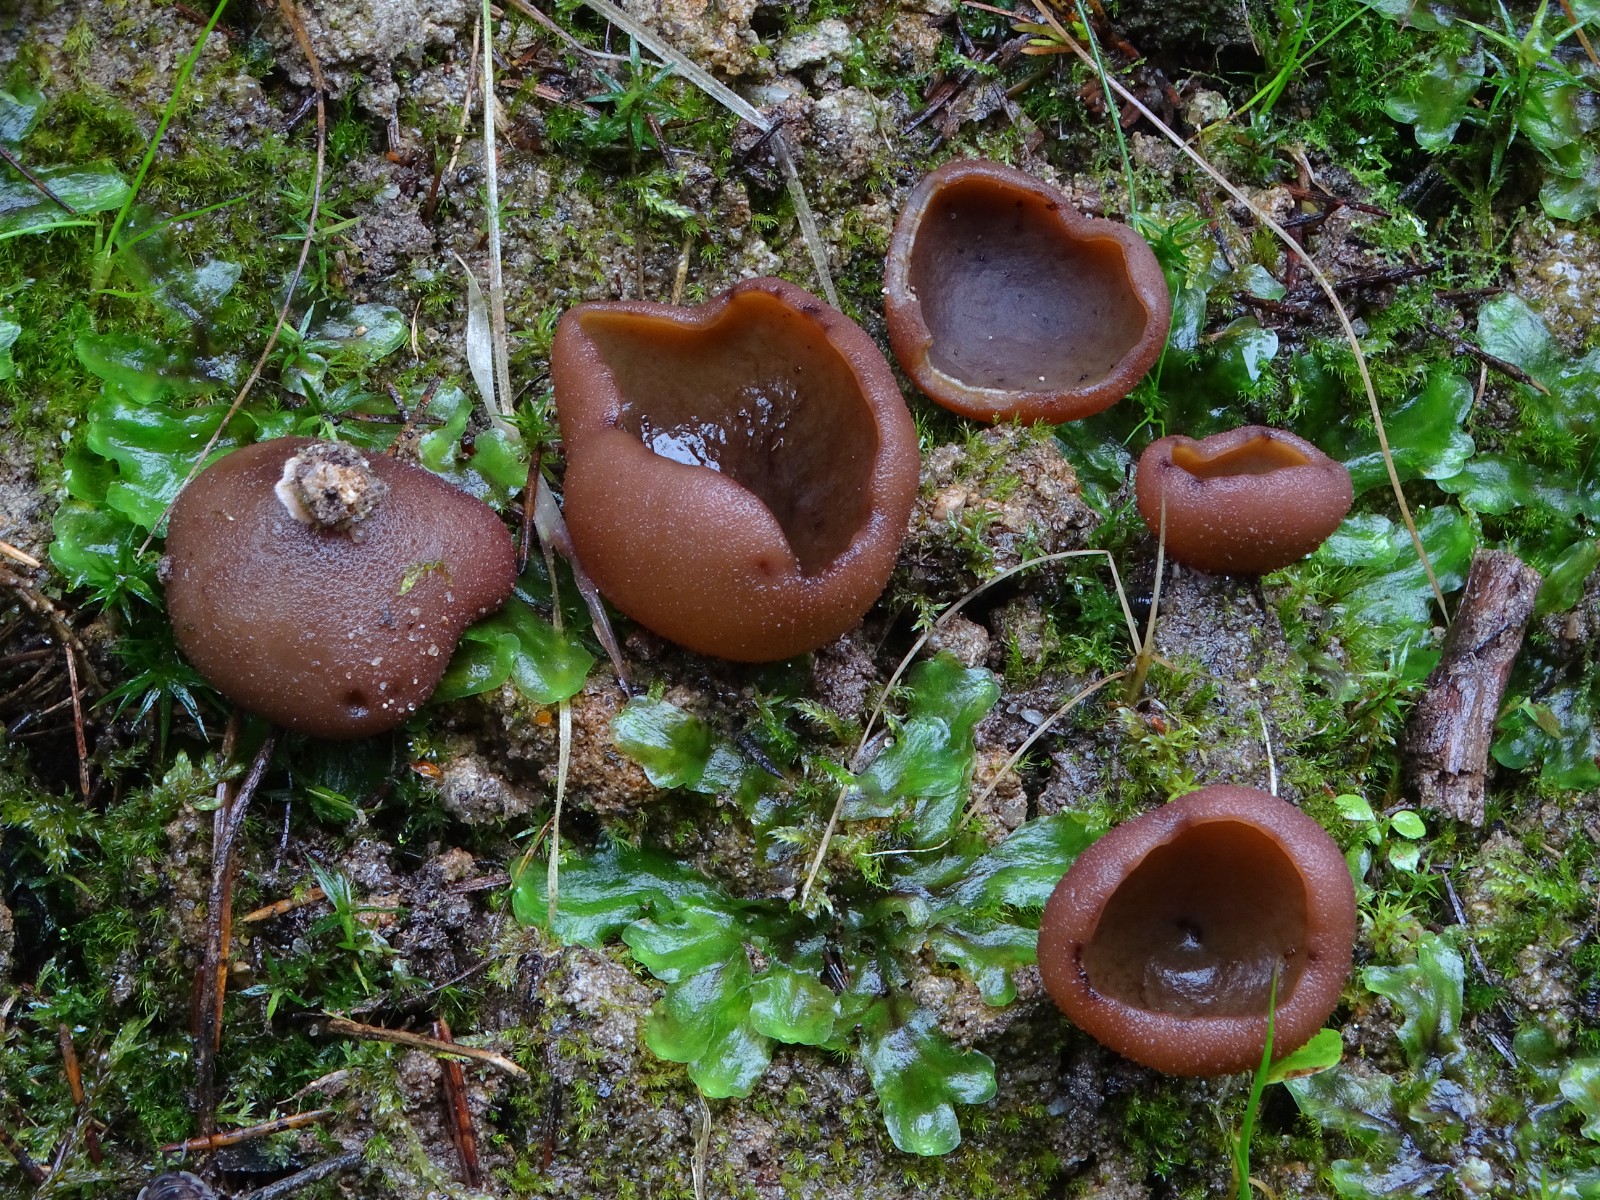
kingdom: Fungi
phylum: Ascomycota
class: Pezizomycetes
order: Pezizales
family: Pezizaceae
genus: Legaliana
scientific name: Legaliana
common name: bægersvamp
